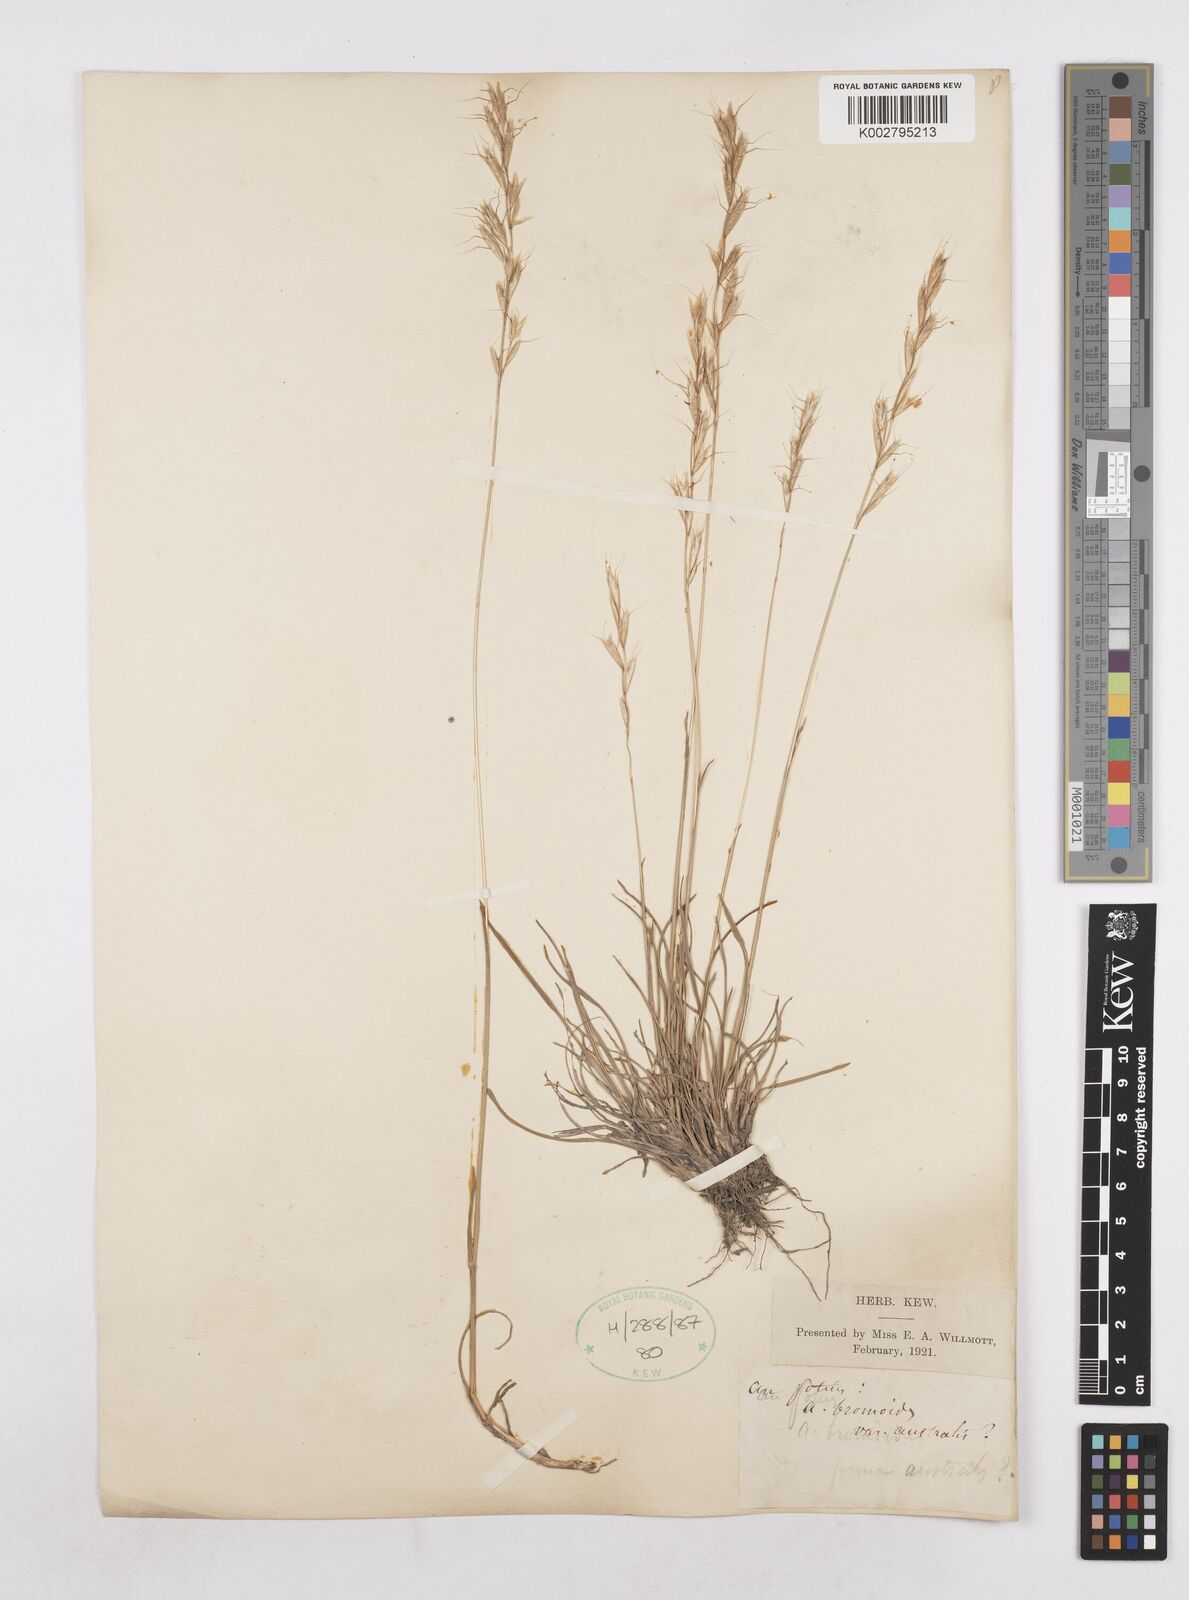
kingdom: Plantae
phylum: Tracheophyta
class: Liliopsida
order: Poales
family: Poaceae
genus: Helictochloa
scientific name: Helictochloa bromoides
